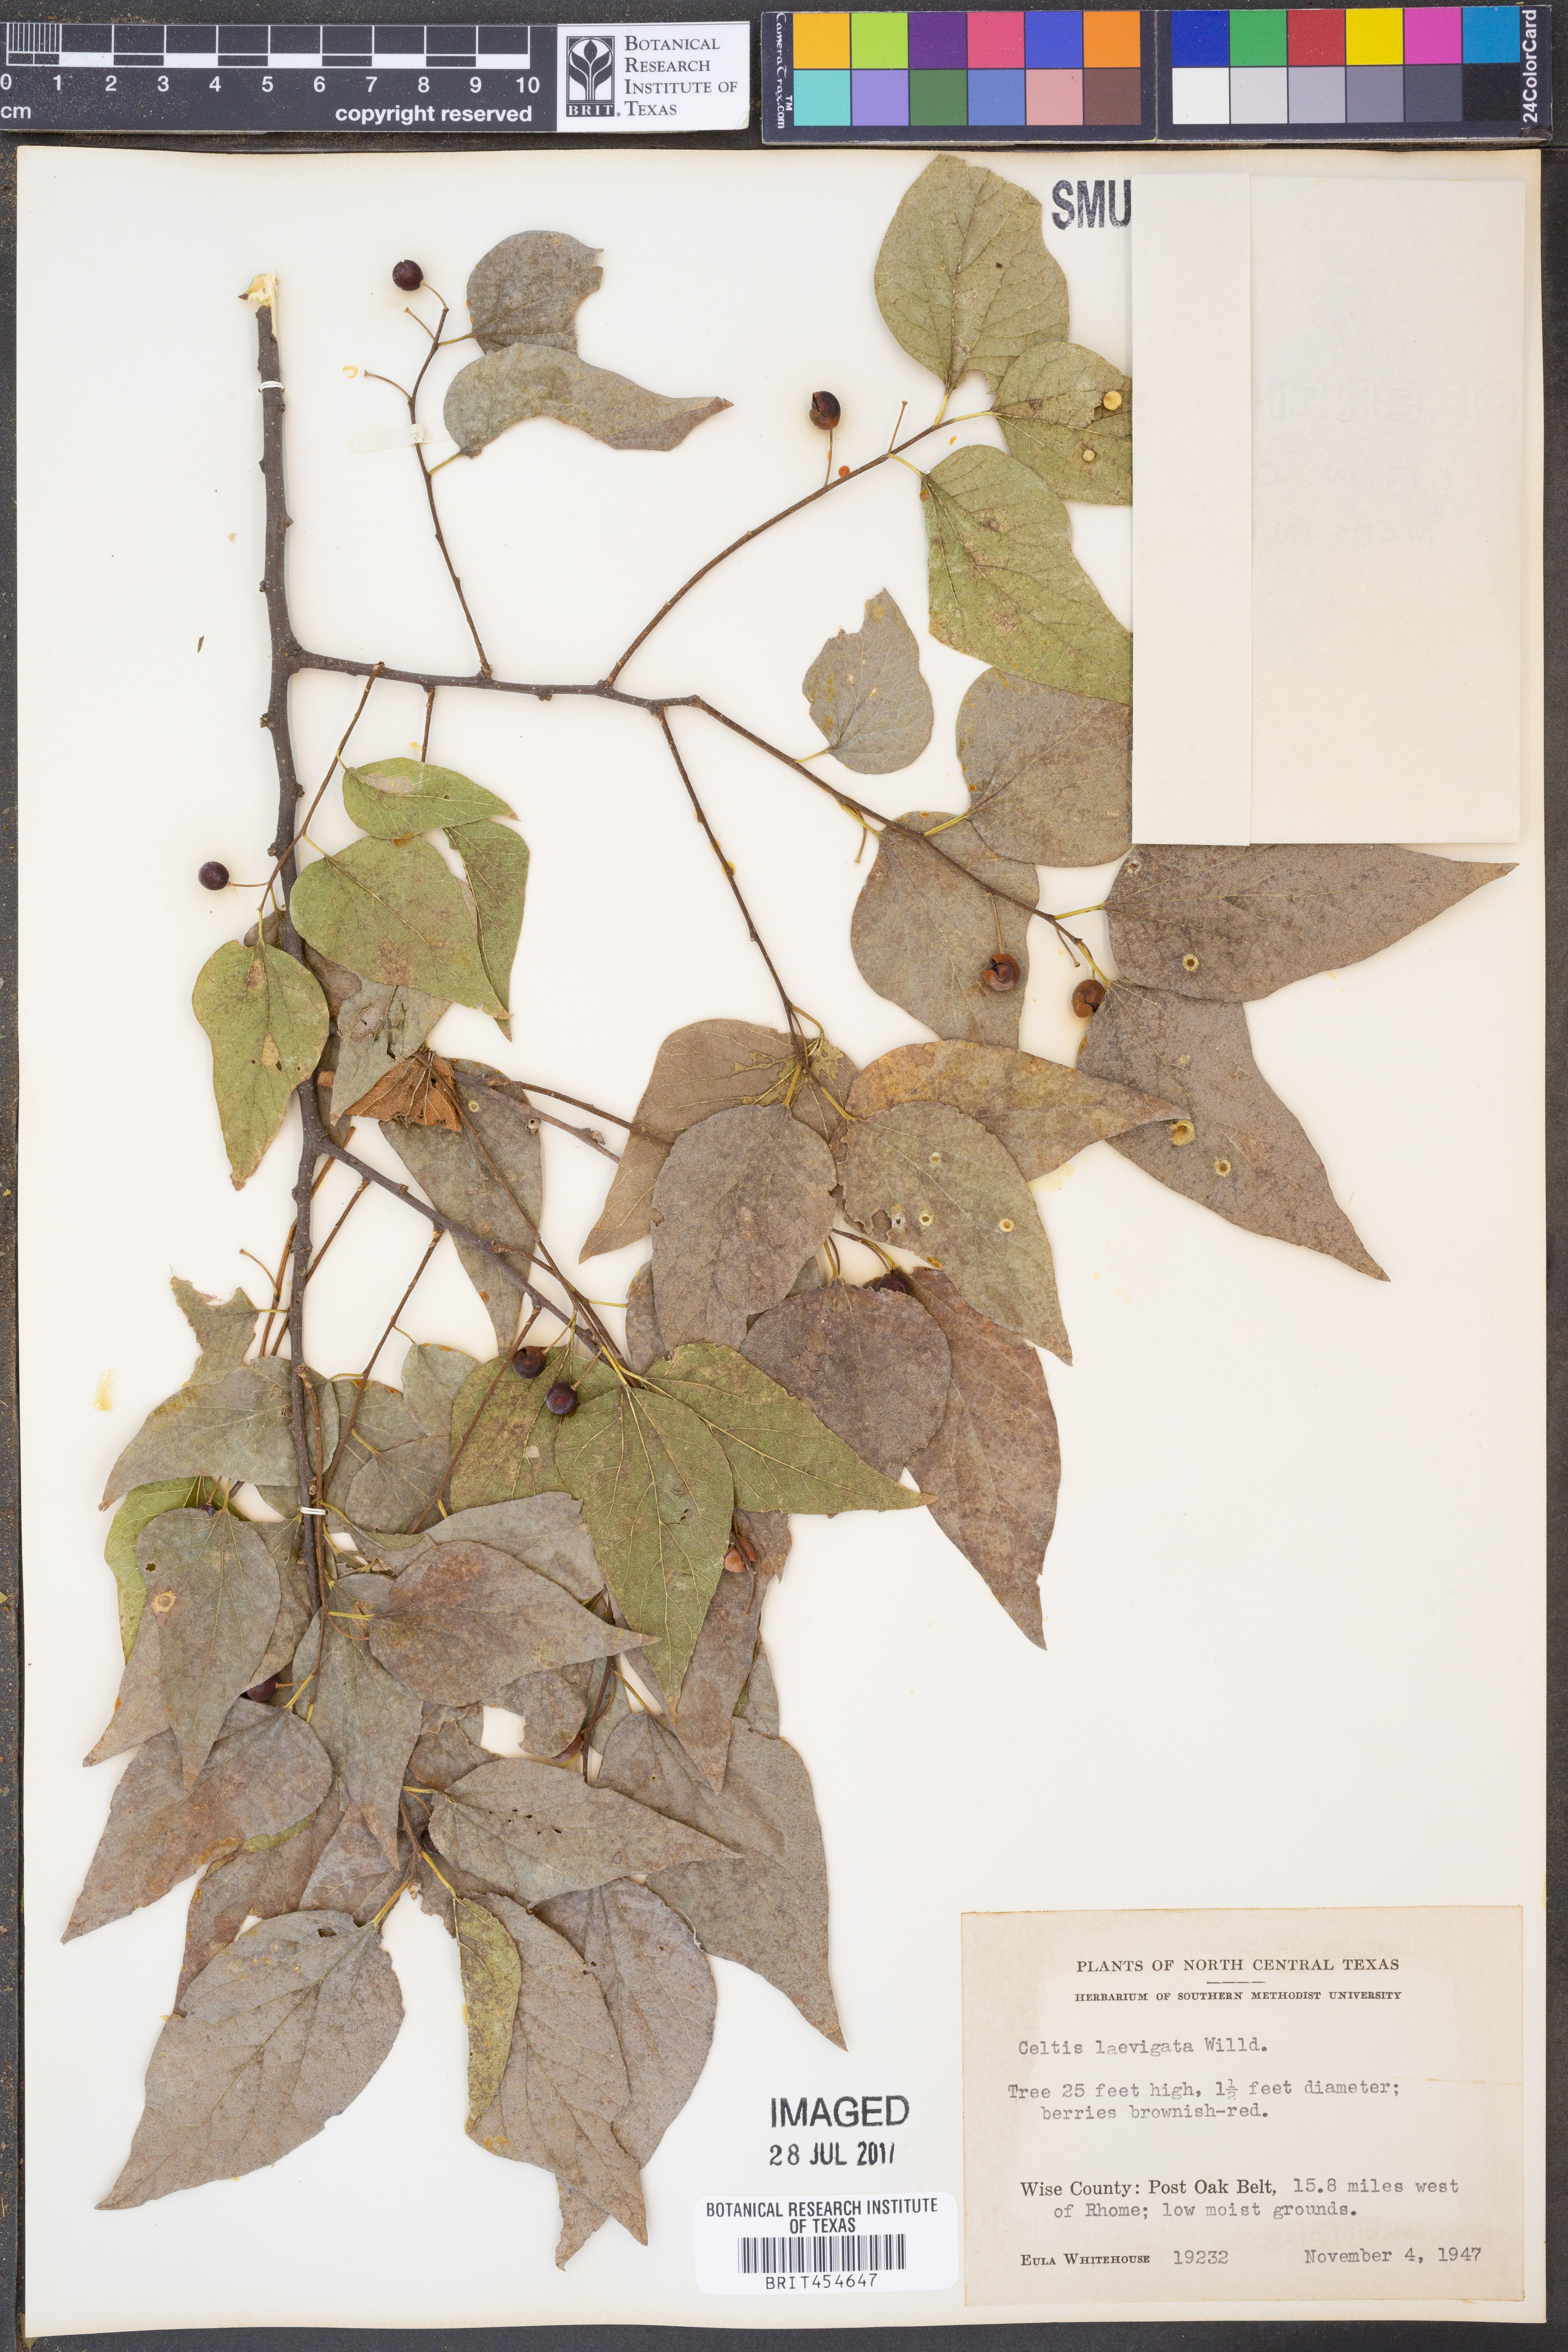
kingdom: Plantae
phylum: Tracheophyta
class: Magnoliopsida
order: Rosales
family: Cannabaceae
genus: Celtis
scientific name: Celtis laevigata
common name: Sugarberry
